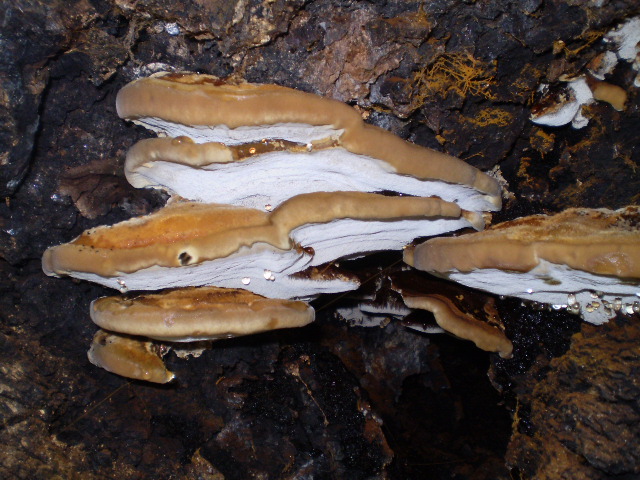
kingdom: Fungi
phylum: Basidiomycota
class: Agaricomycetes
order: Hymenochaetales
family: Hymenochaetaceae
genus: Inonotus
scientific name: Inonotus cuticularis
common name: kroghåret spejlporesvamp
